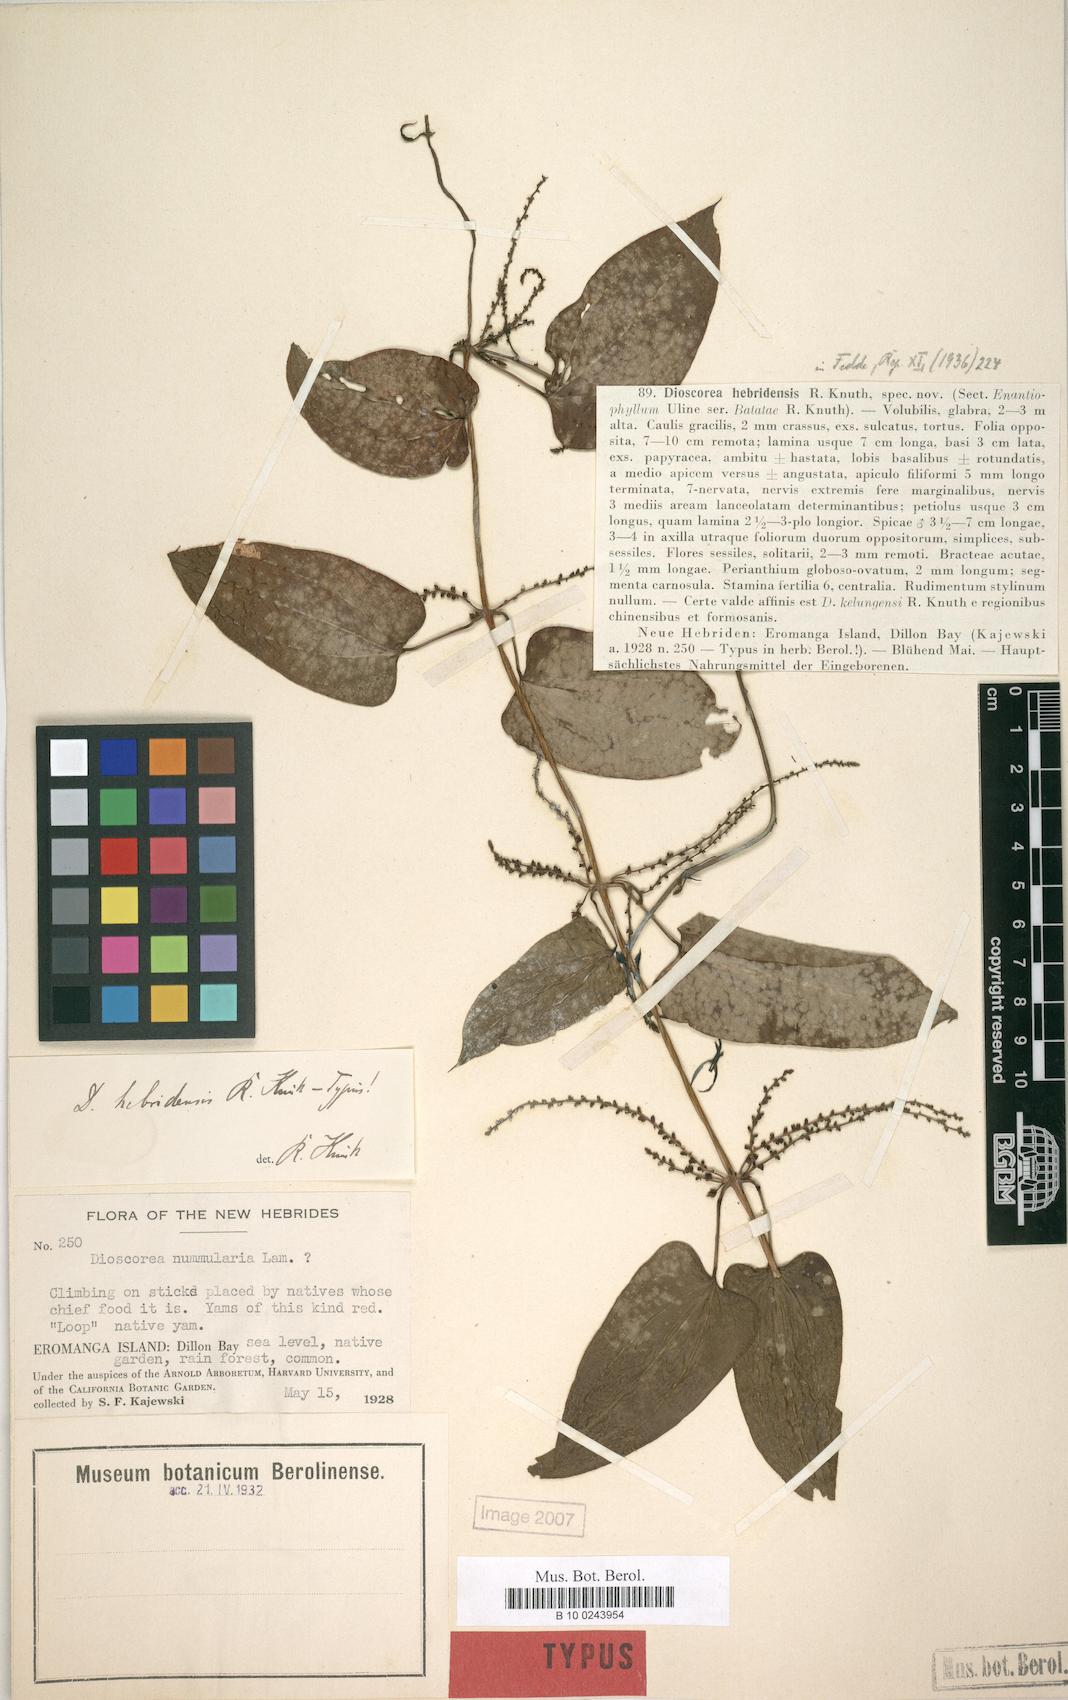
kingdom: Plantae
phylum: Tracheophyta
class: Liliopsida
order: Dioscoreales
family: Dioscoreaceae
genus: Dioscorea
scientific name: Dioscorea hebridensis
